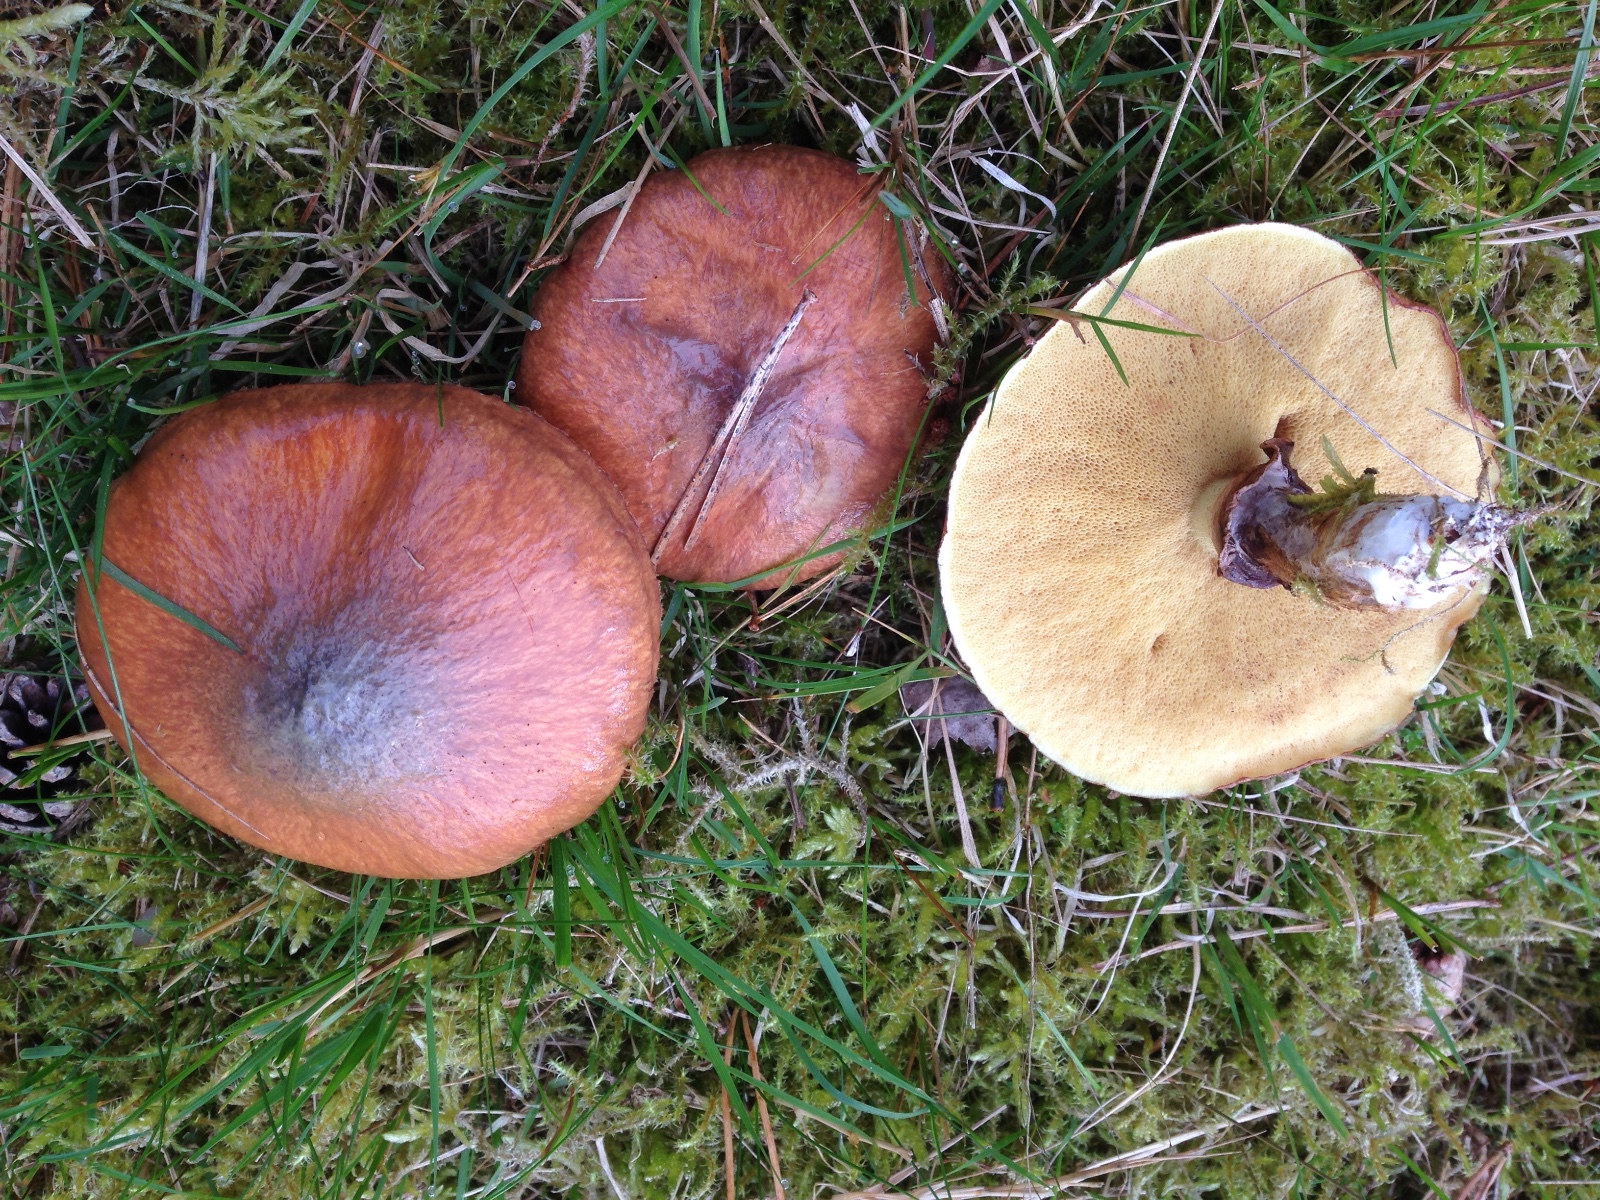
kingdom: Fungi
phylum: Basidiomycota
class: Agaricomycetes
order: Boletales
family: Suillaceae
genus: Suillus
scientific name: Suillus luteus
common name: brungul slimrørhat
